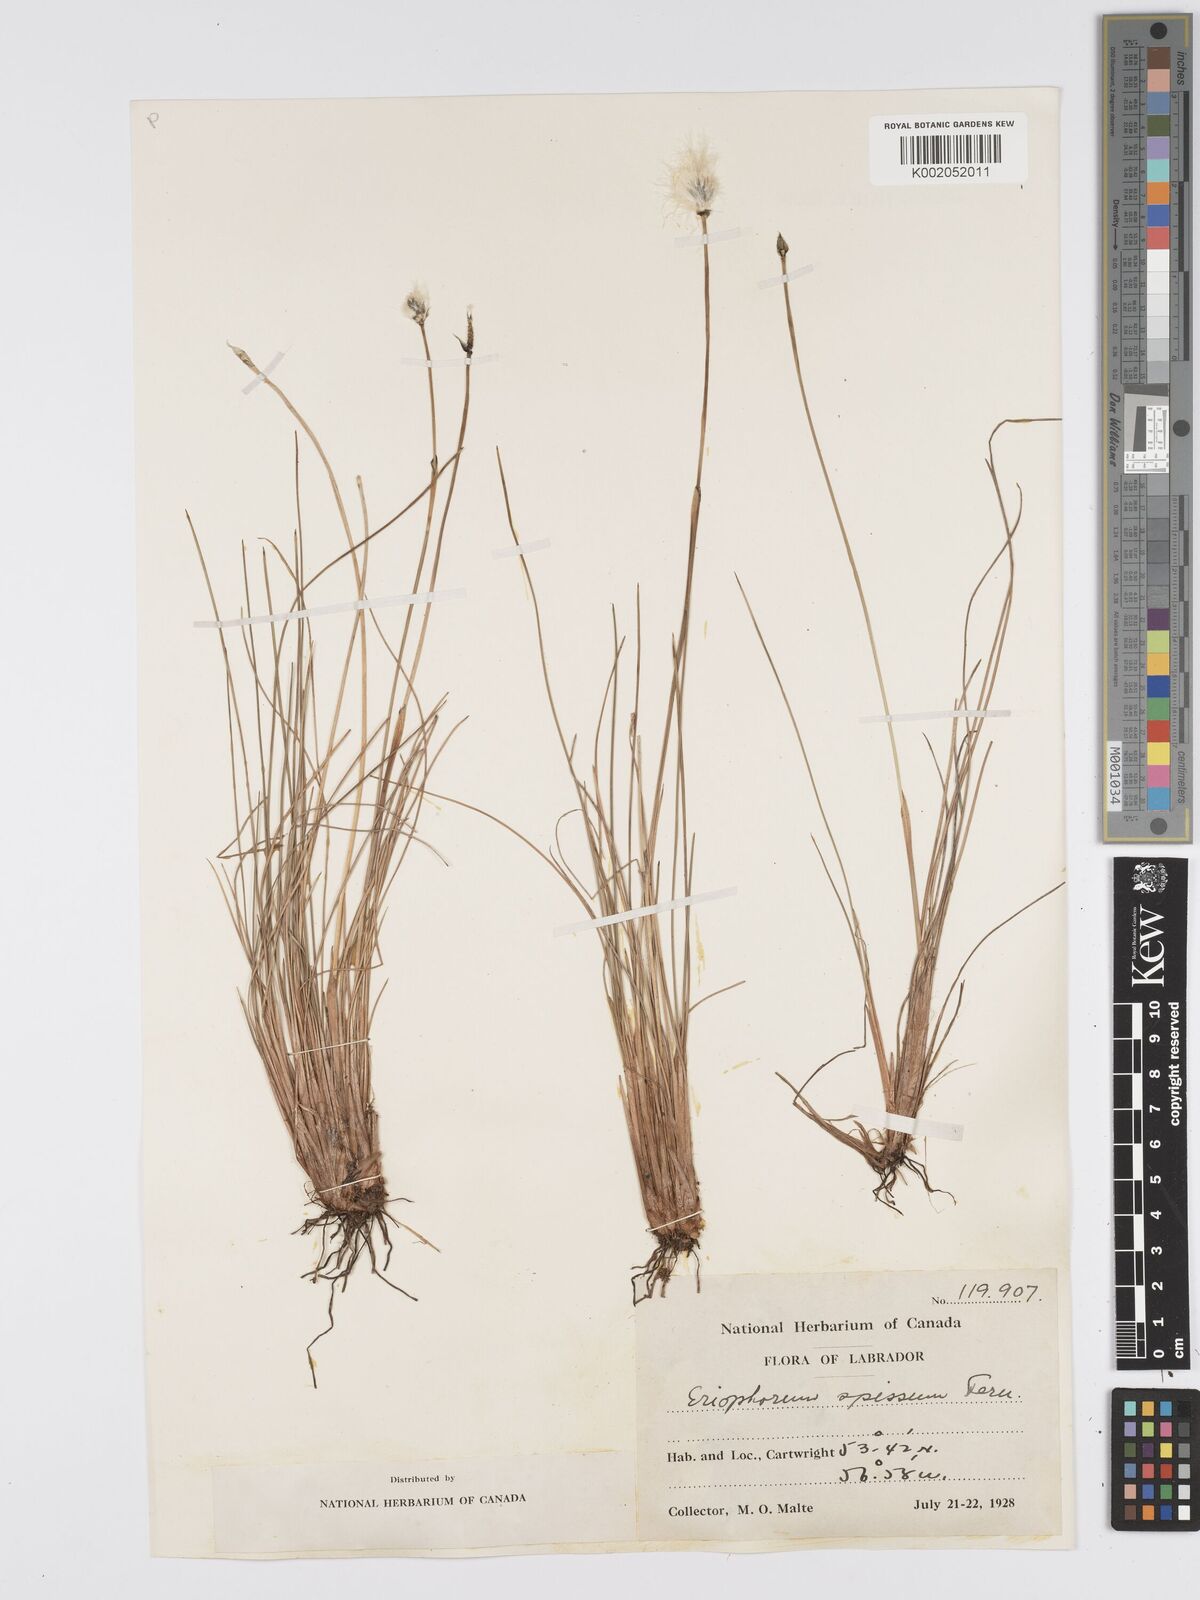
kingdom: Plantae
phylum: Tracheophyta
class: Liliopsida
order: Poales
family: Cyperaceae
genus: Eriophorum
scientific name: Eriophorum vaginatum
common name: Hare's-tail cottongrass
